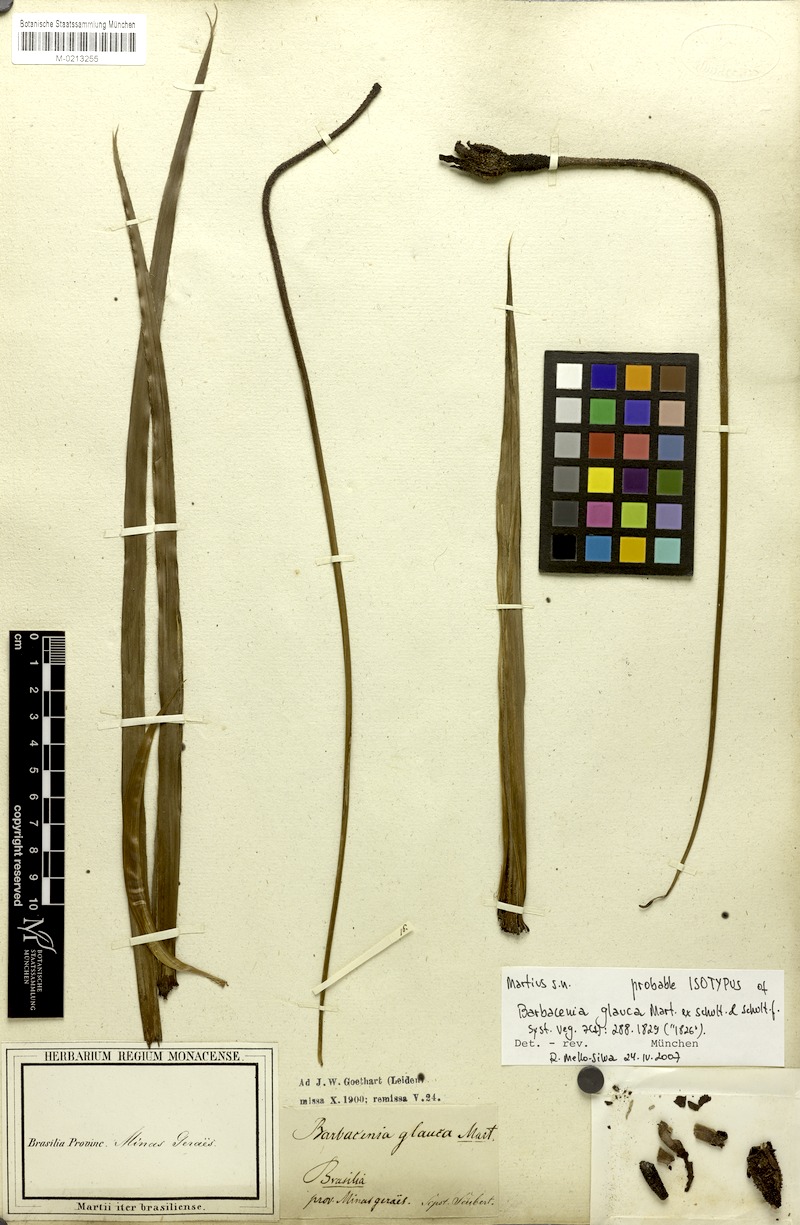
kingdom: Plantae
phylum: Tracheophyta
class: Liliopsida
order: Pandanales
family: Velloziaceae
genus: Barbacenia
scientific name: Barbacenia glauca
